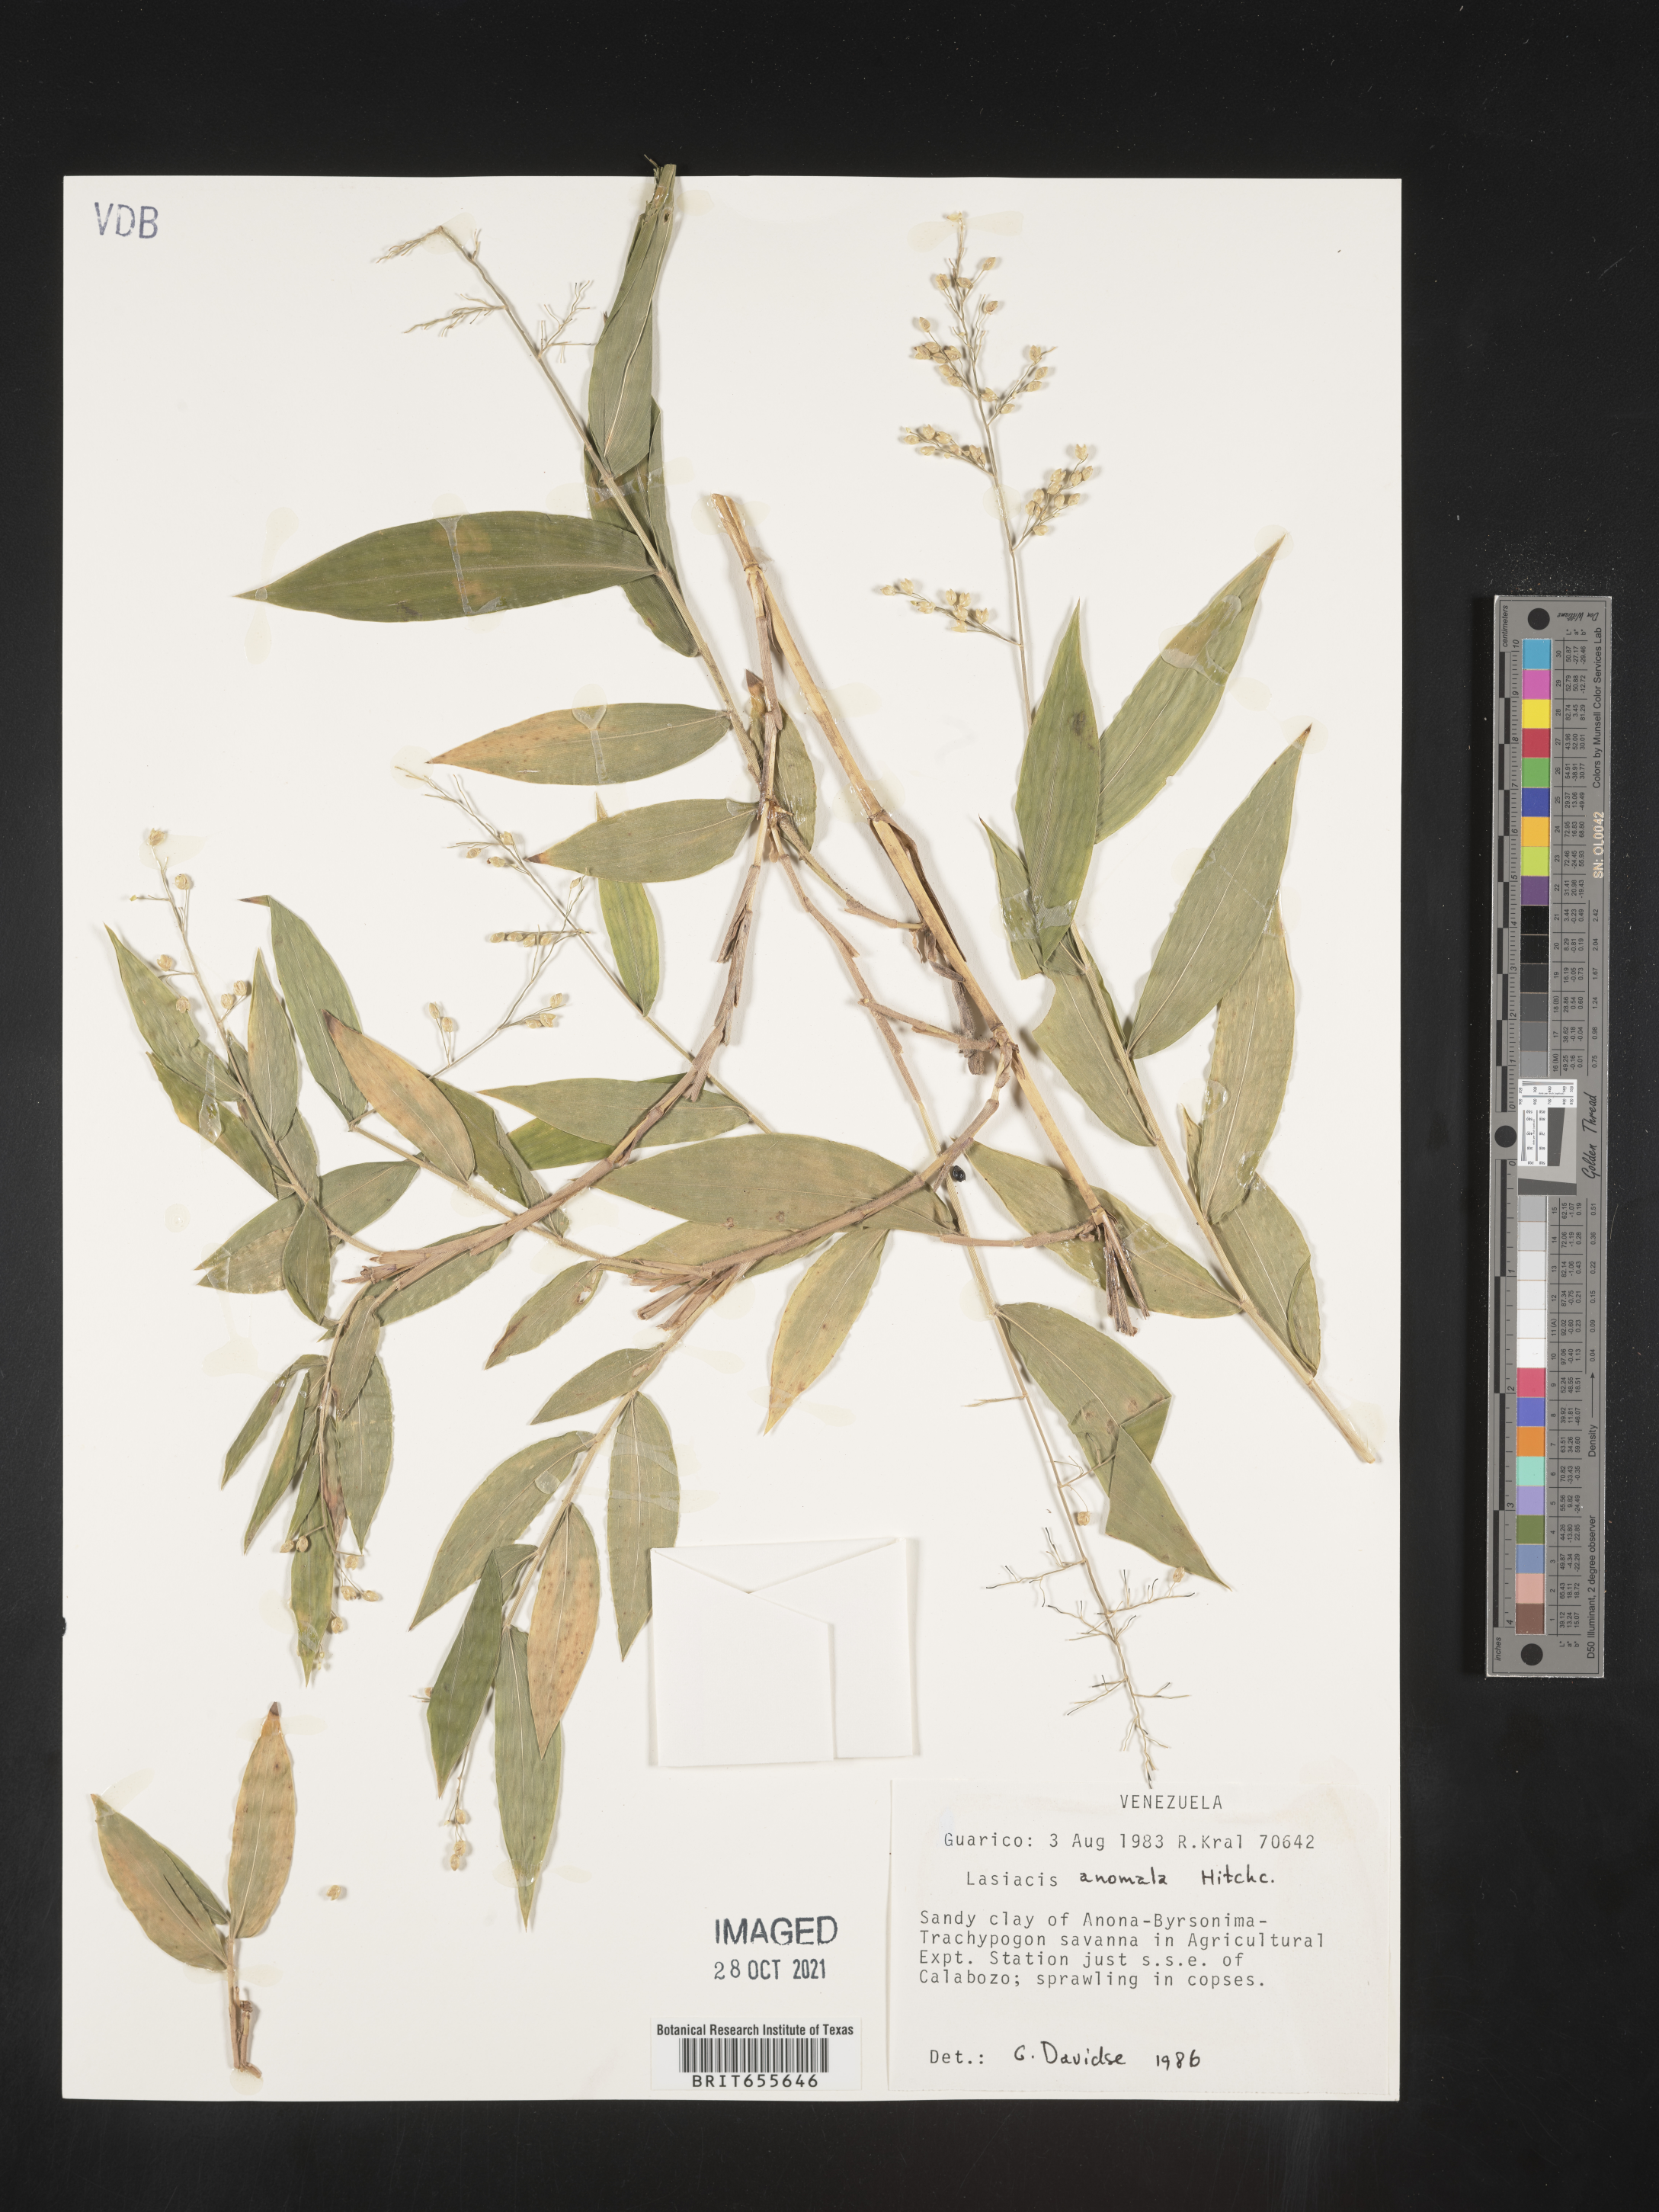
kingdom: Plantae
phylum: Tracheophyta
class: Liliopsida
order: Poales
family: Poaceae
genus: Lasiacis
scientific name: Lasiacis
